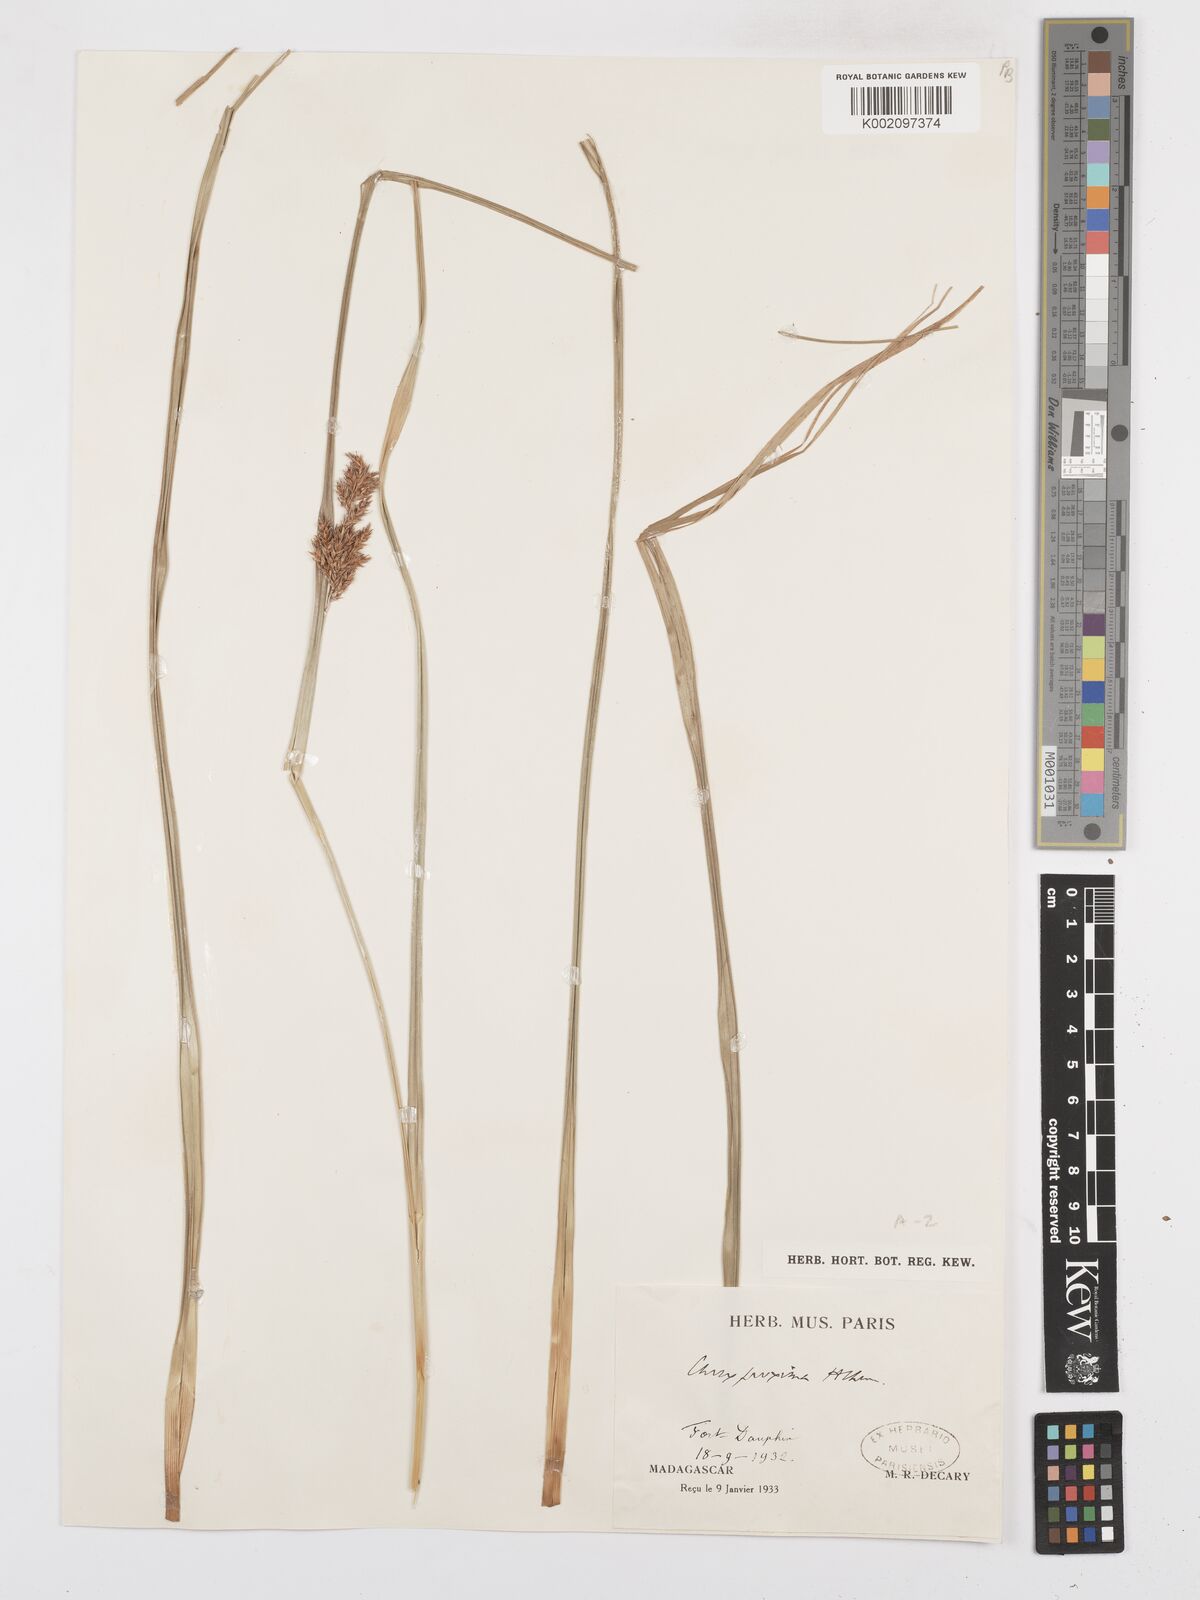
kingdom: Plantae
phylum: Tracheophyta
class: Liliopsida
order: Poales
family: Cyperaceae
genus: Carex
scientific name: Carex proxima
